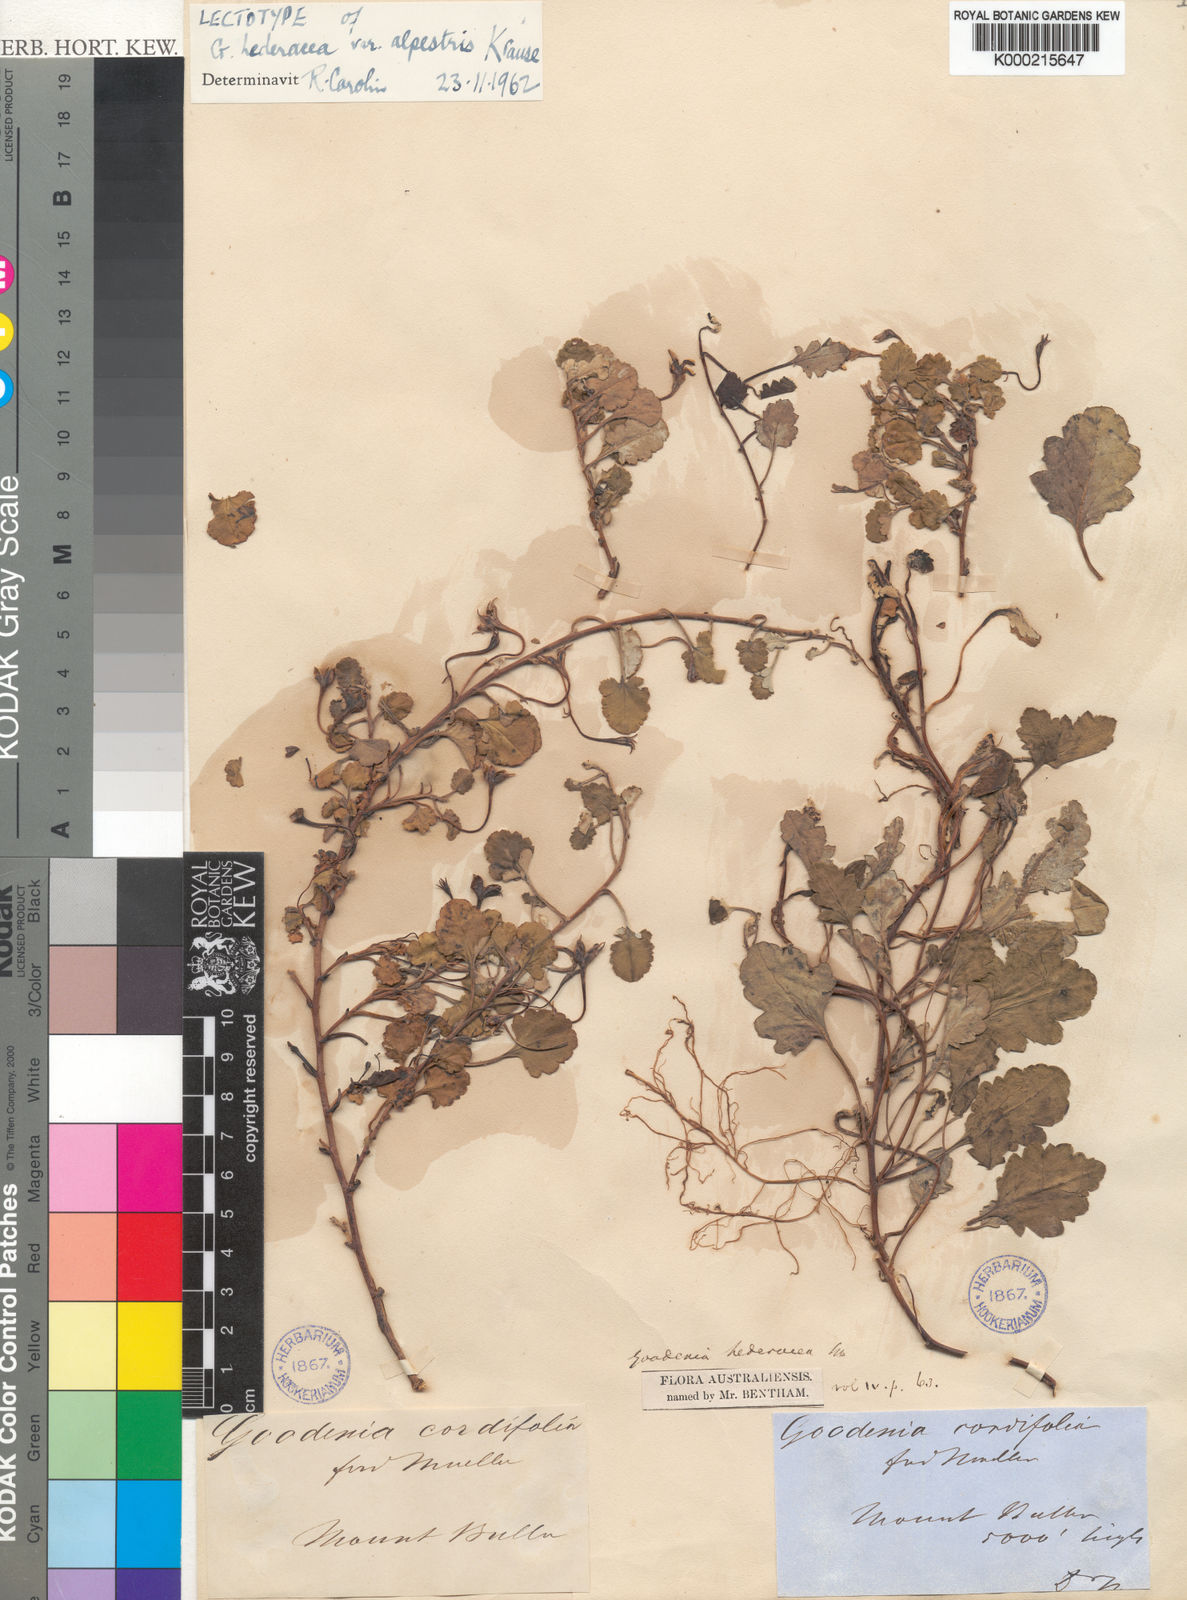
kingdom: Plantae
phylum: Tracheophyta
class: Magnoliopsida
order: Asterales
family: Goodeniaceae
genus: Goodenia
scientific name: Goodenia hederacea
